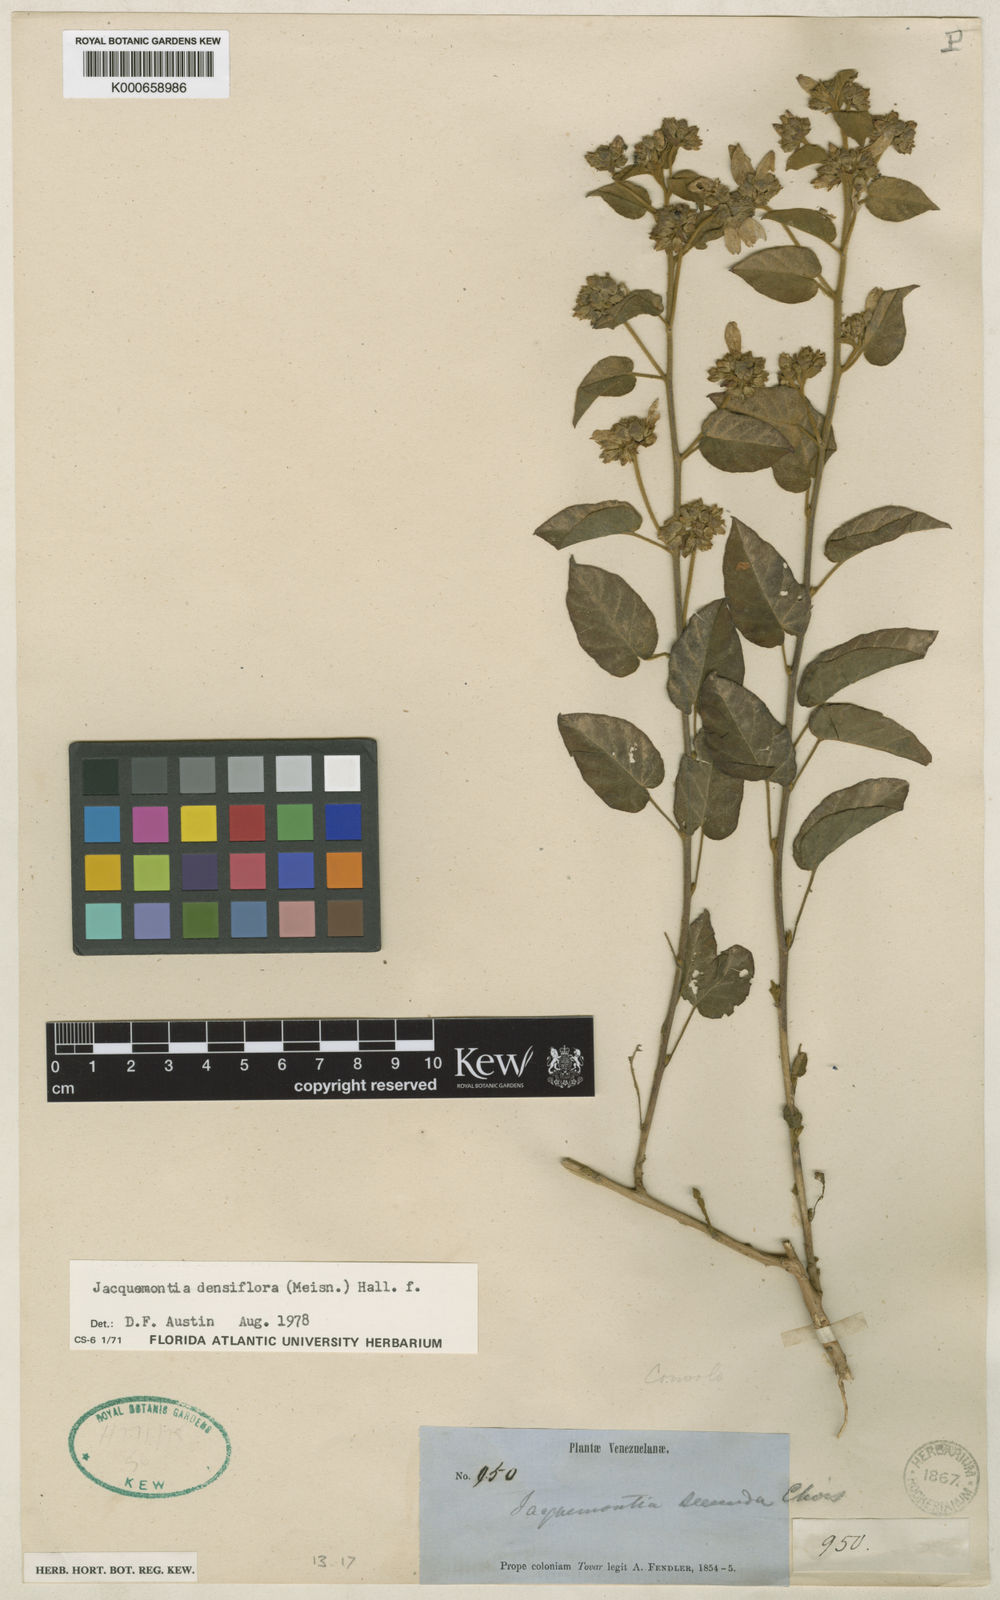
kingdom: Plantae
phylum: Tracheophyta
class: Magnoliopsida
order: Solanales
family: Convolvulaceae
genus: Jacquemontia
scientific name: Jacquemontia densiflora
